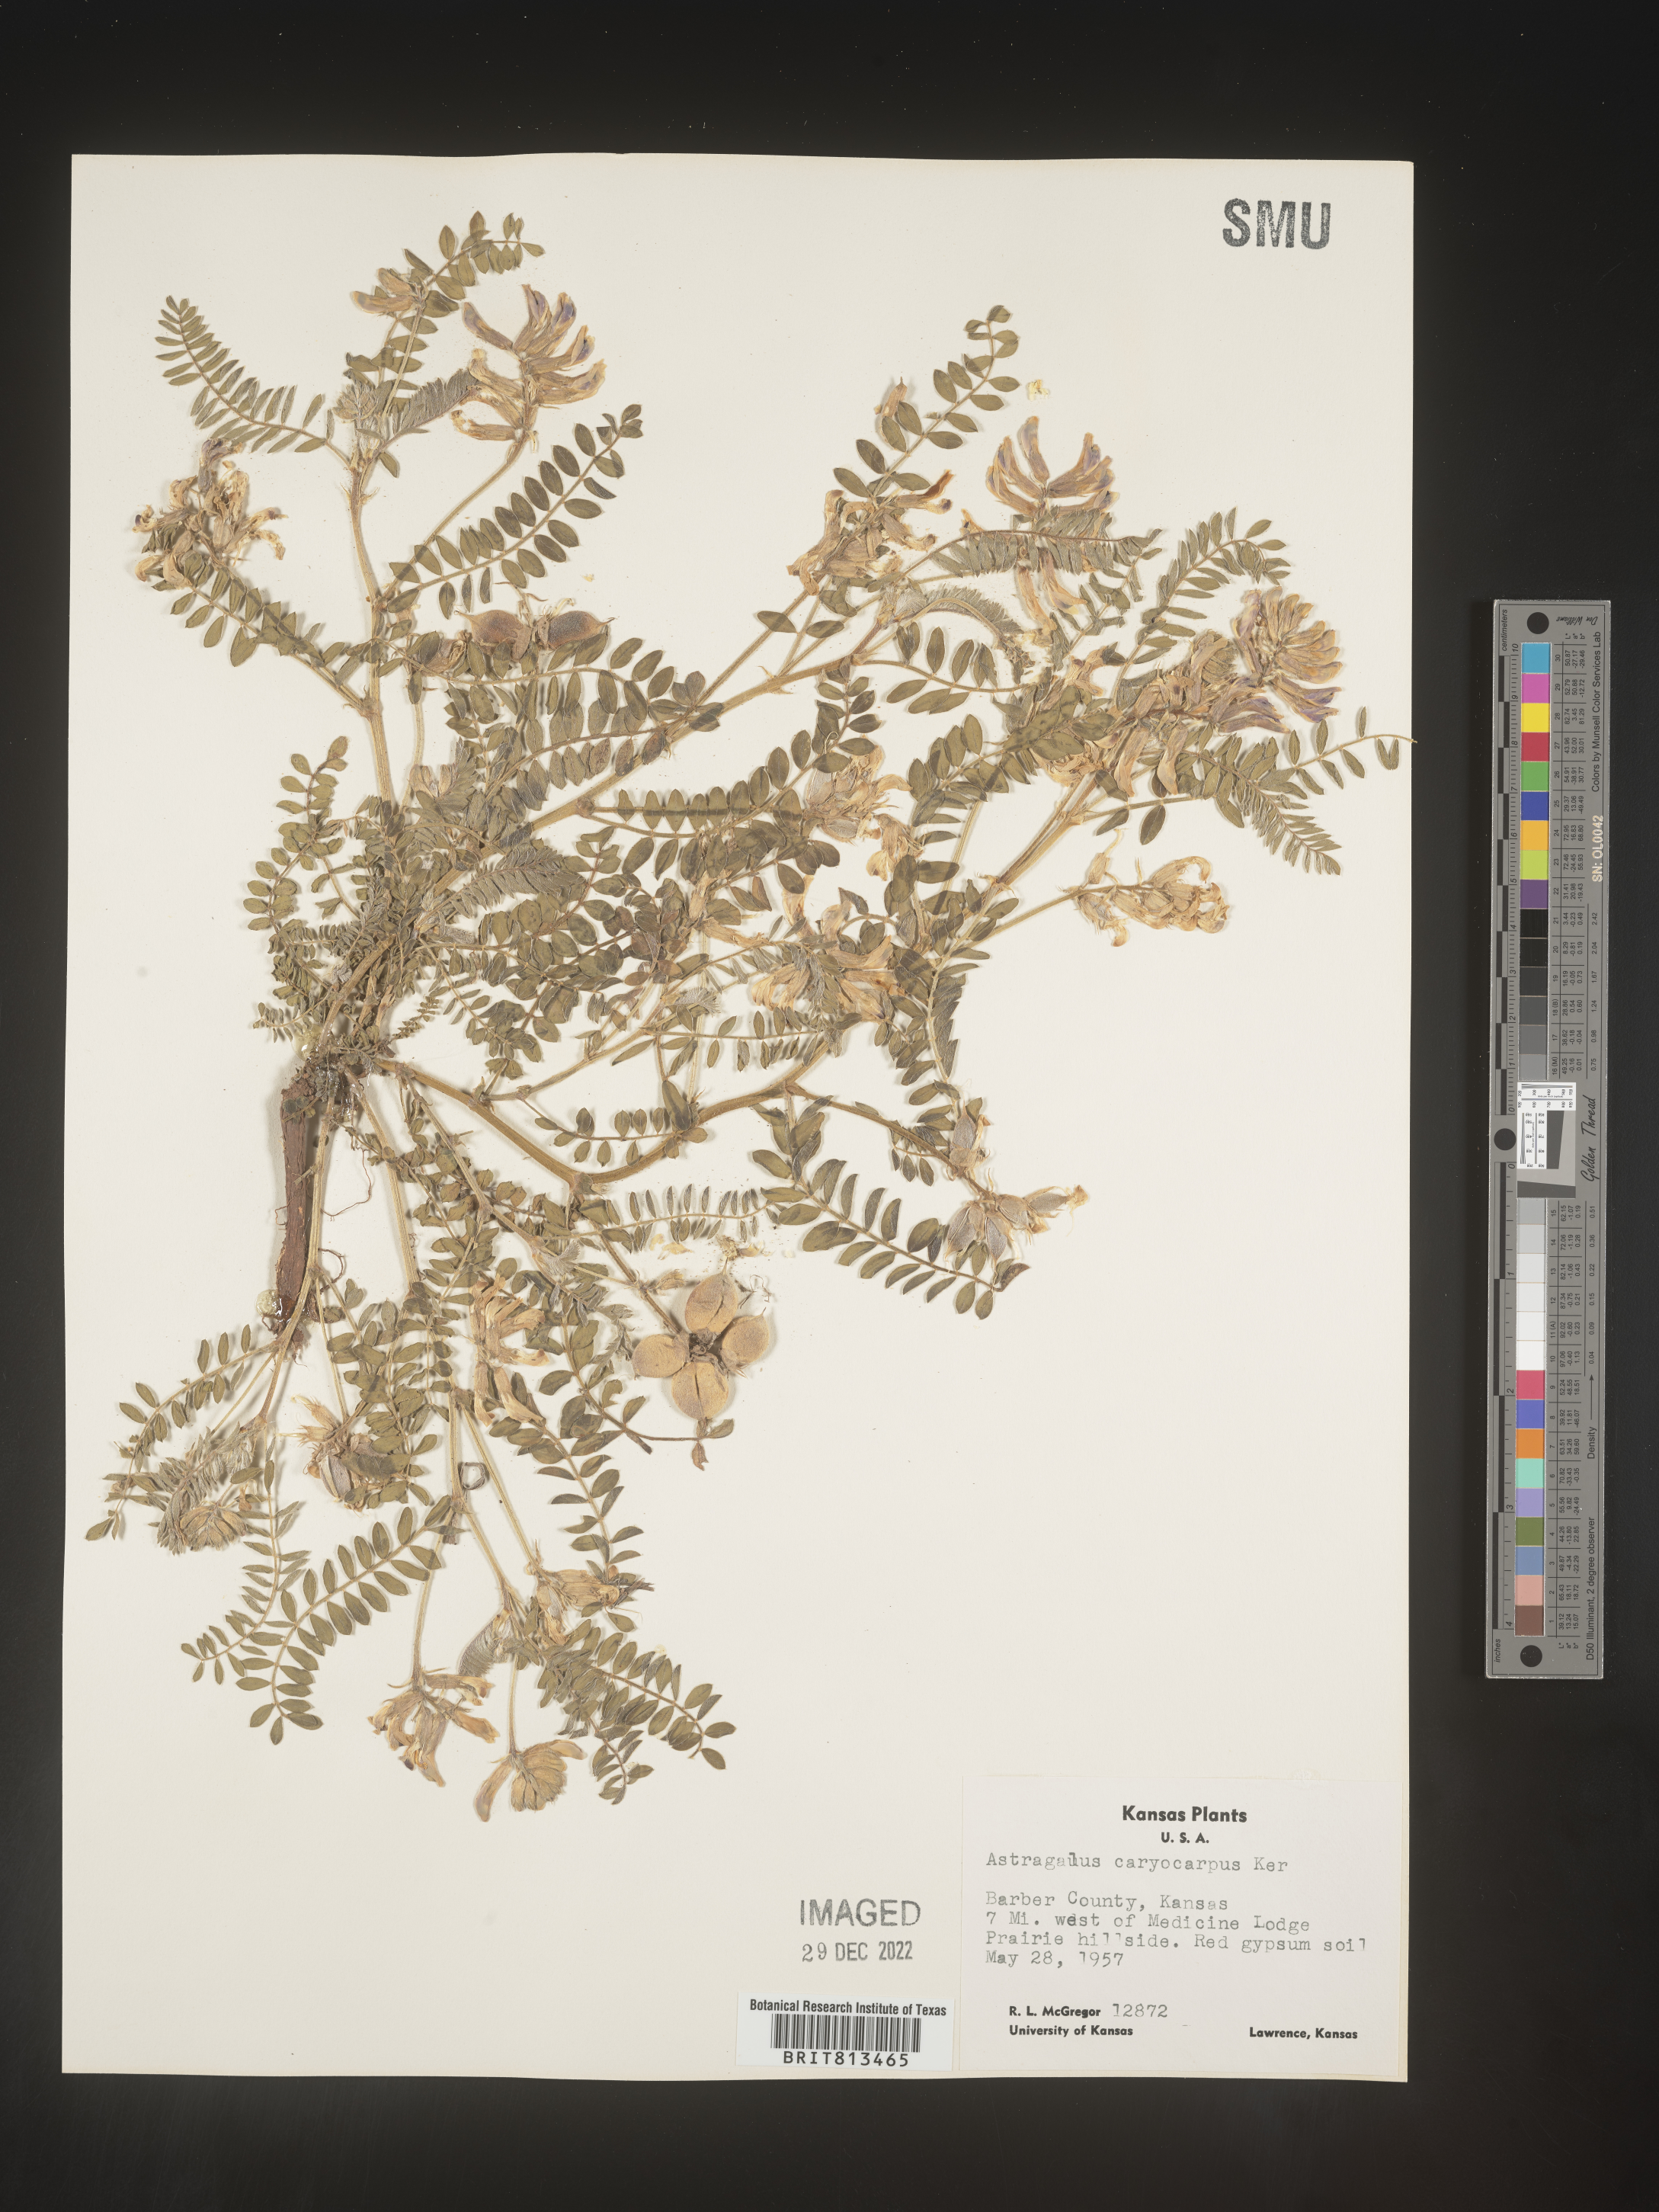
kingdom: Plantae
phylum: Tracheophyta
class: Magnoliopsida
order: Fabales
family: Fabaceae
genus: Astragalus
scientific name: Astragalus
